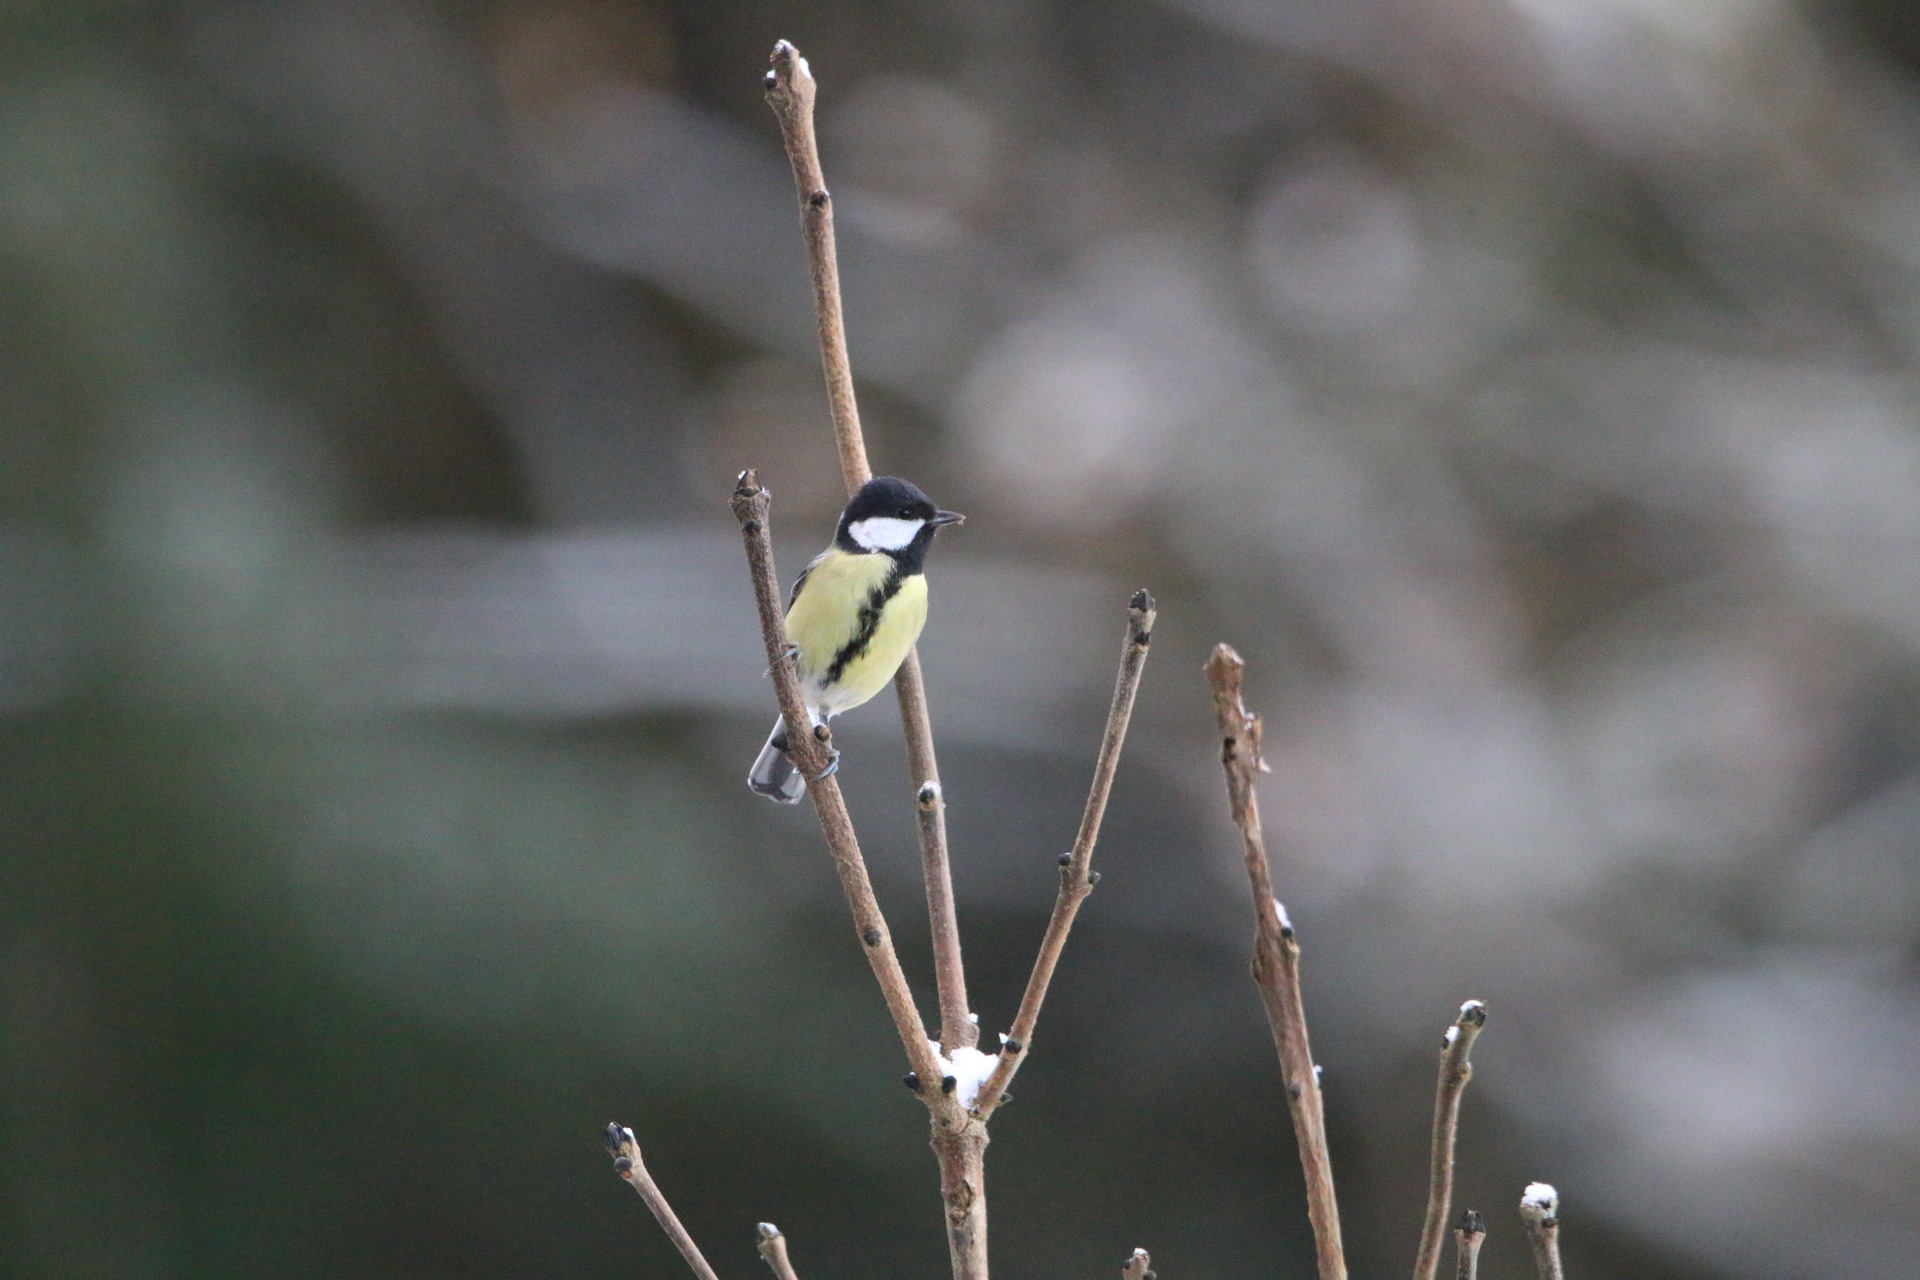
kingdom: Animalia
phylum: Chordata
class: Aves
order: Passeriformes
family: Paridae
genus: Parus
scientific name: Parus major
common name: Musvit
